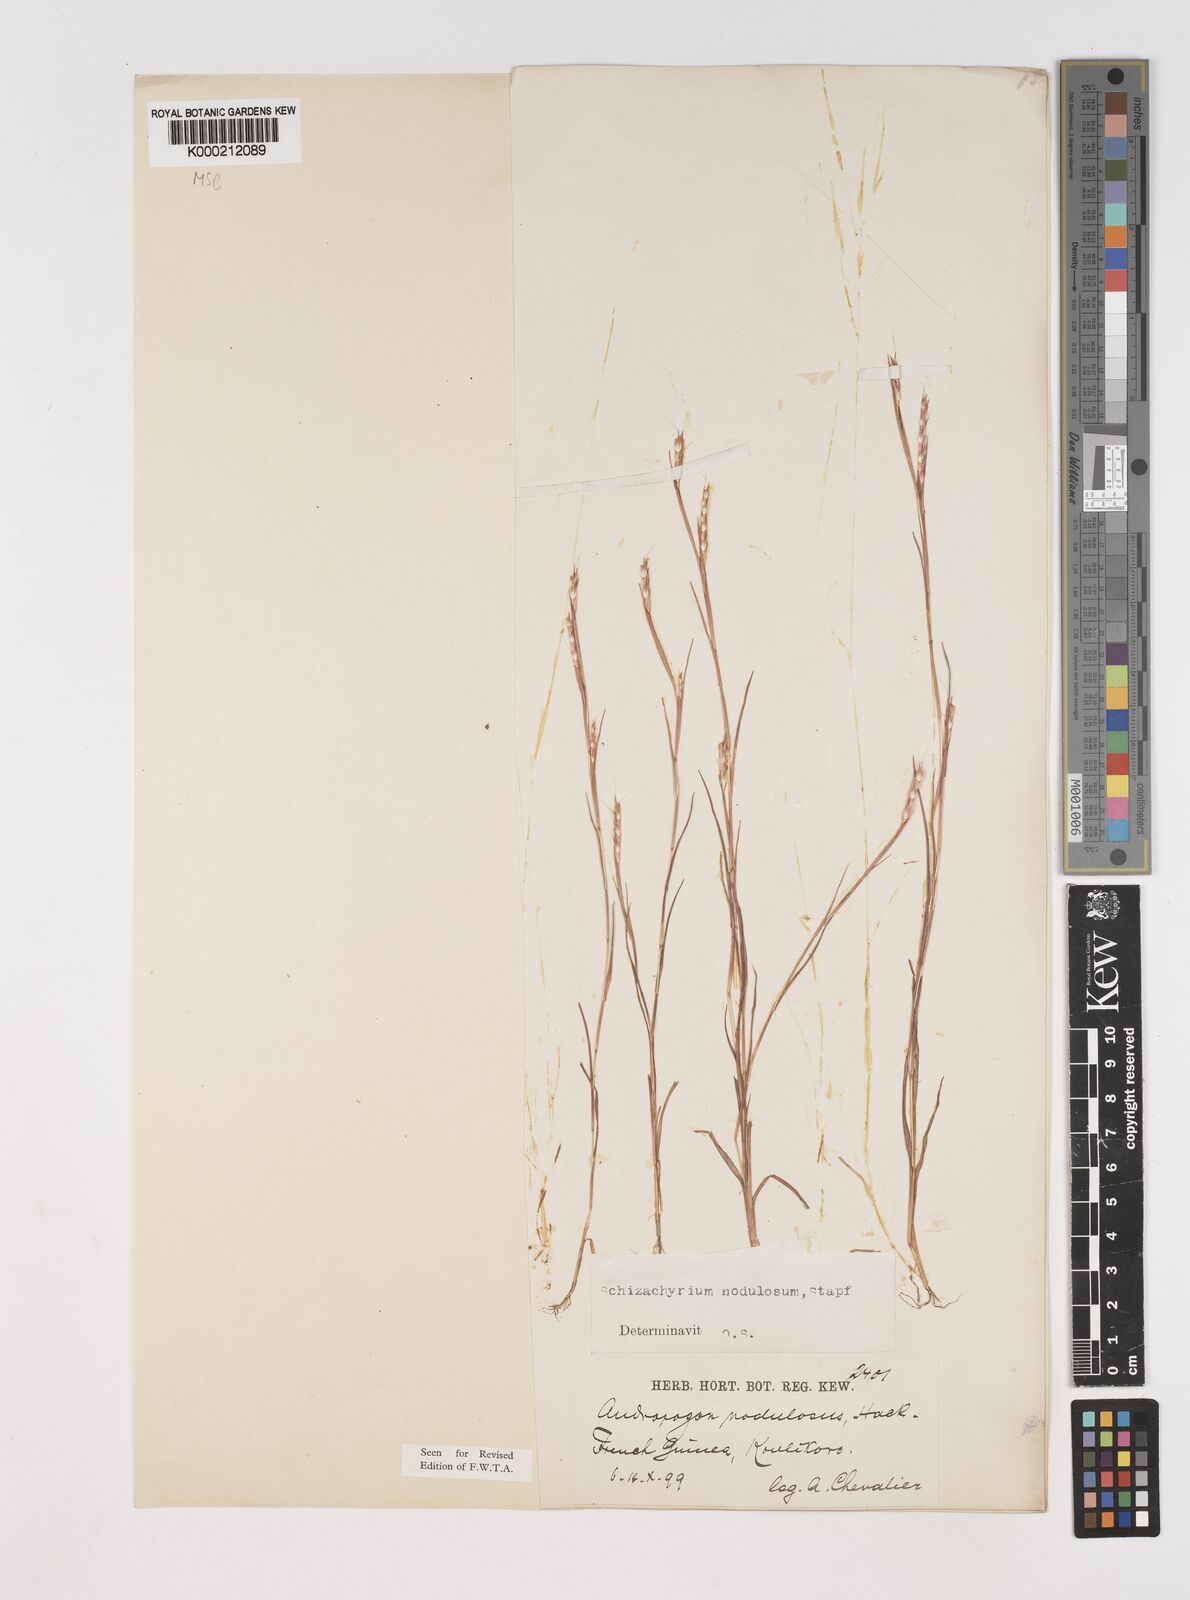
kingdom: Plantae
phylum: Tracheophyta
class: Liliopsida
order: Poales
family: Poaceae
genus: Schizachyrium
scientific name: Schizachyrium nodulosum
